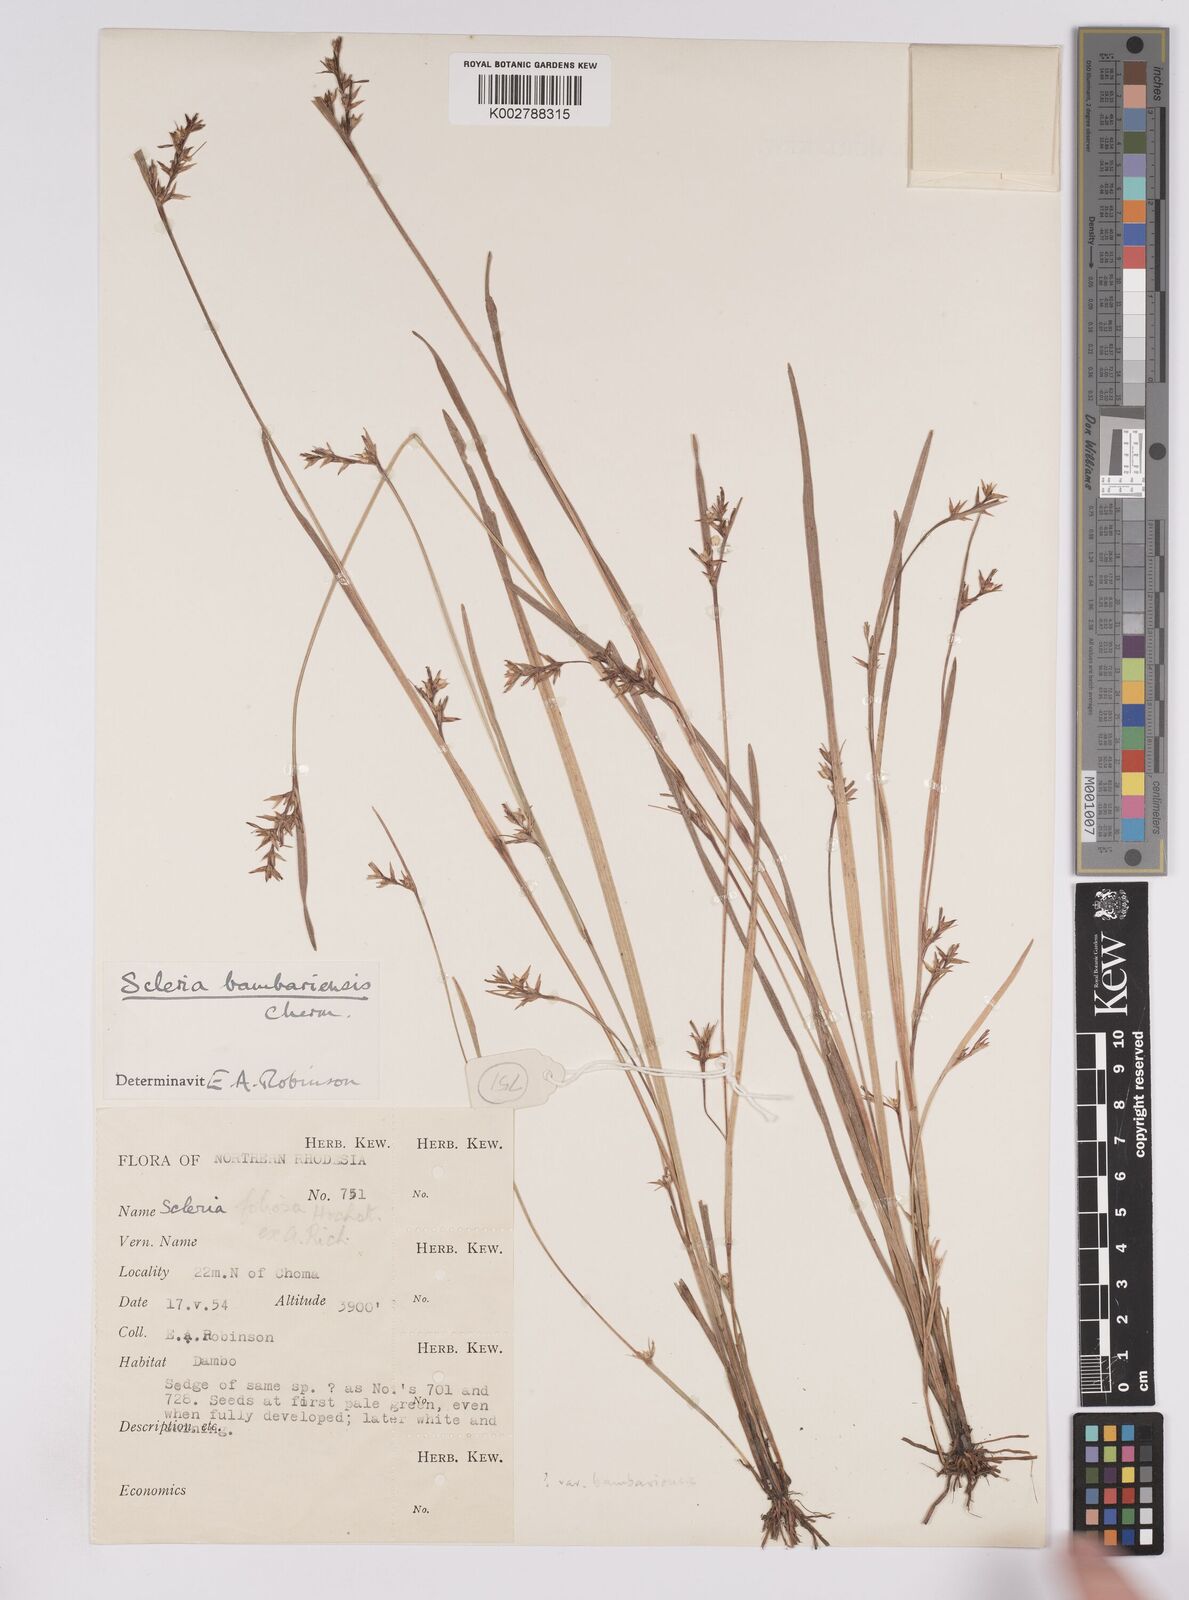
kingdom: Plantae
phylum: Tracheophyta
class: Liliopsida
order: Poales
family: Cyperaceae
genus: Scleria
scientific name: Scleria bambariensis
